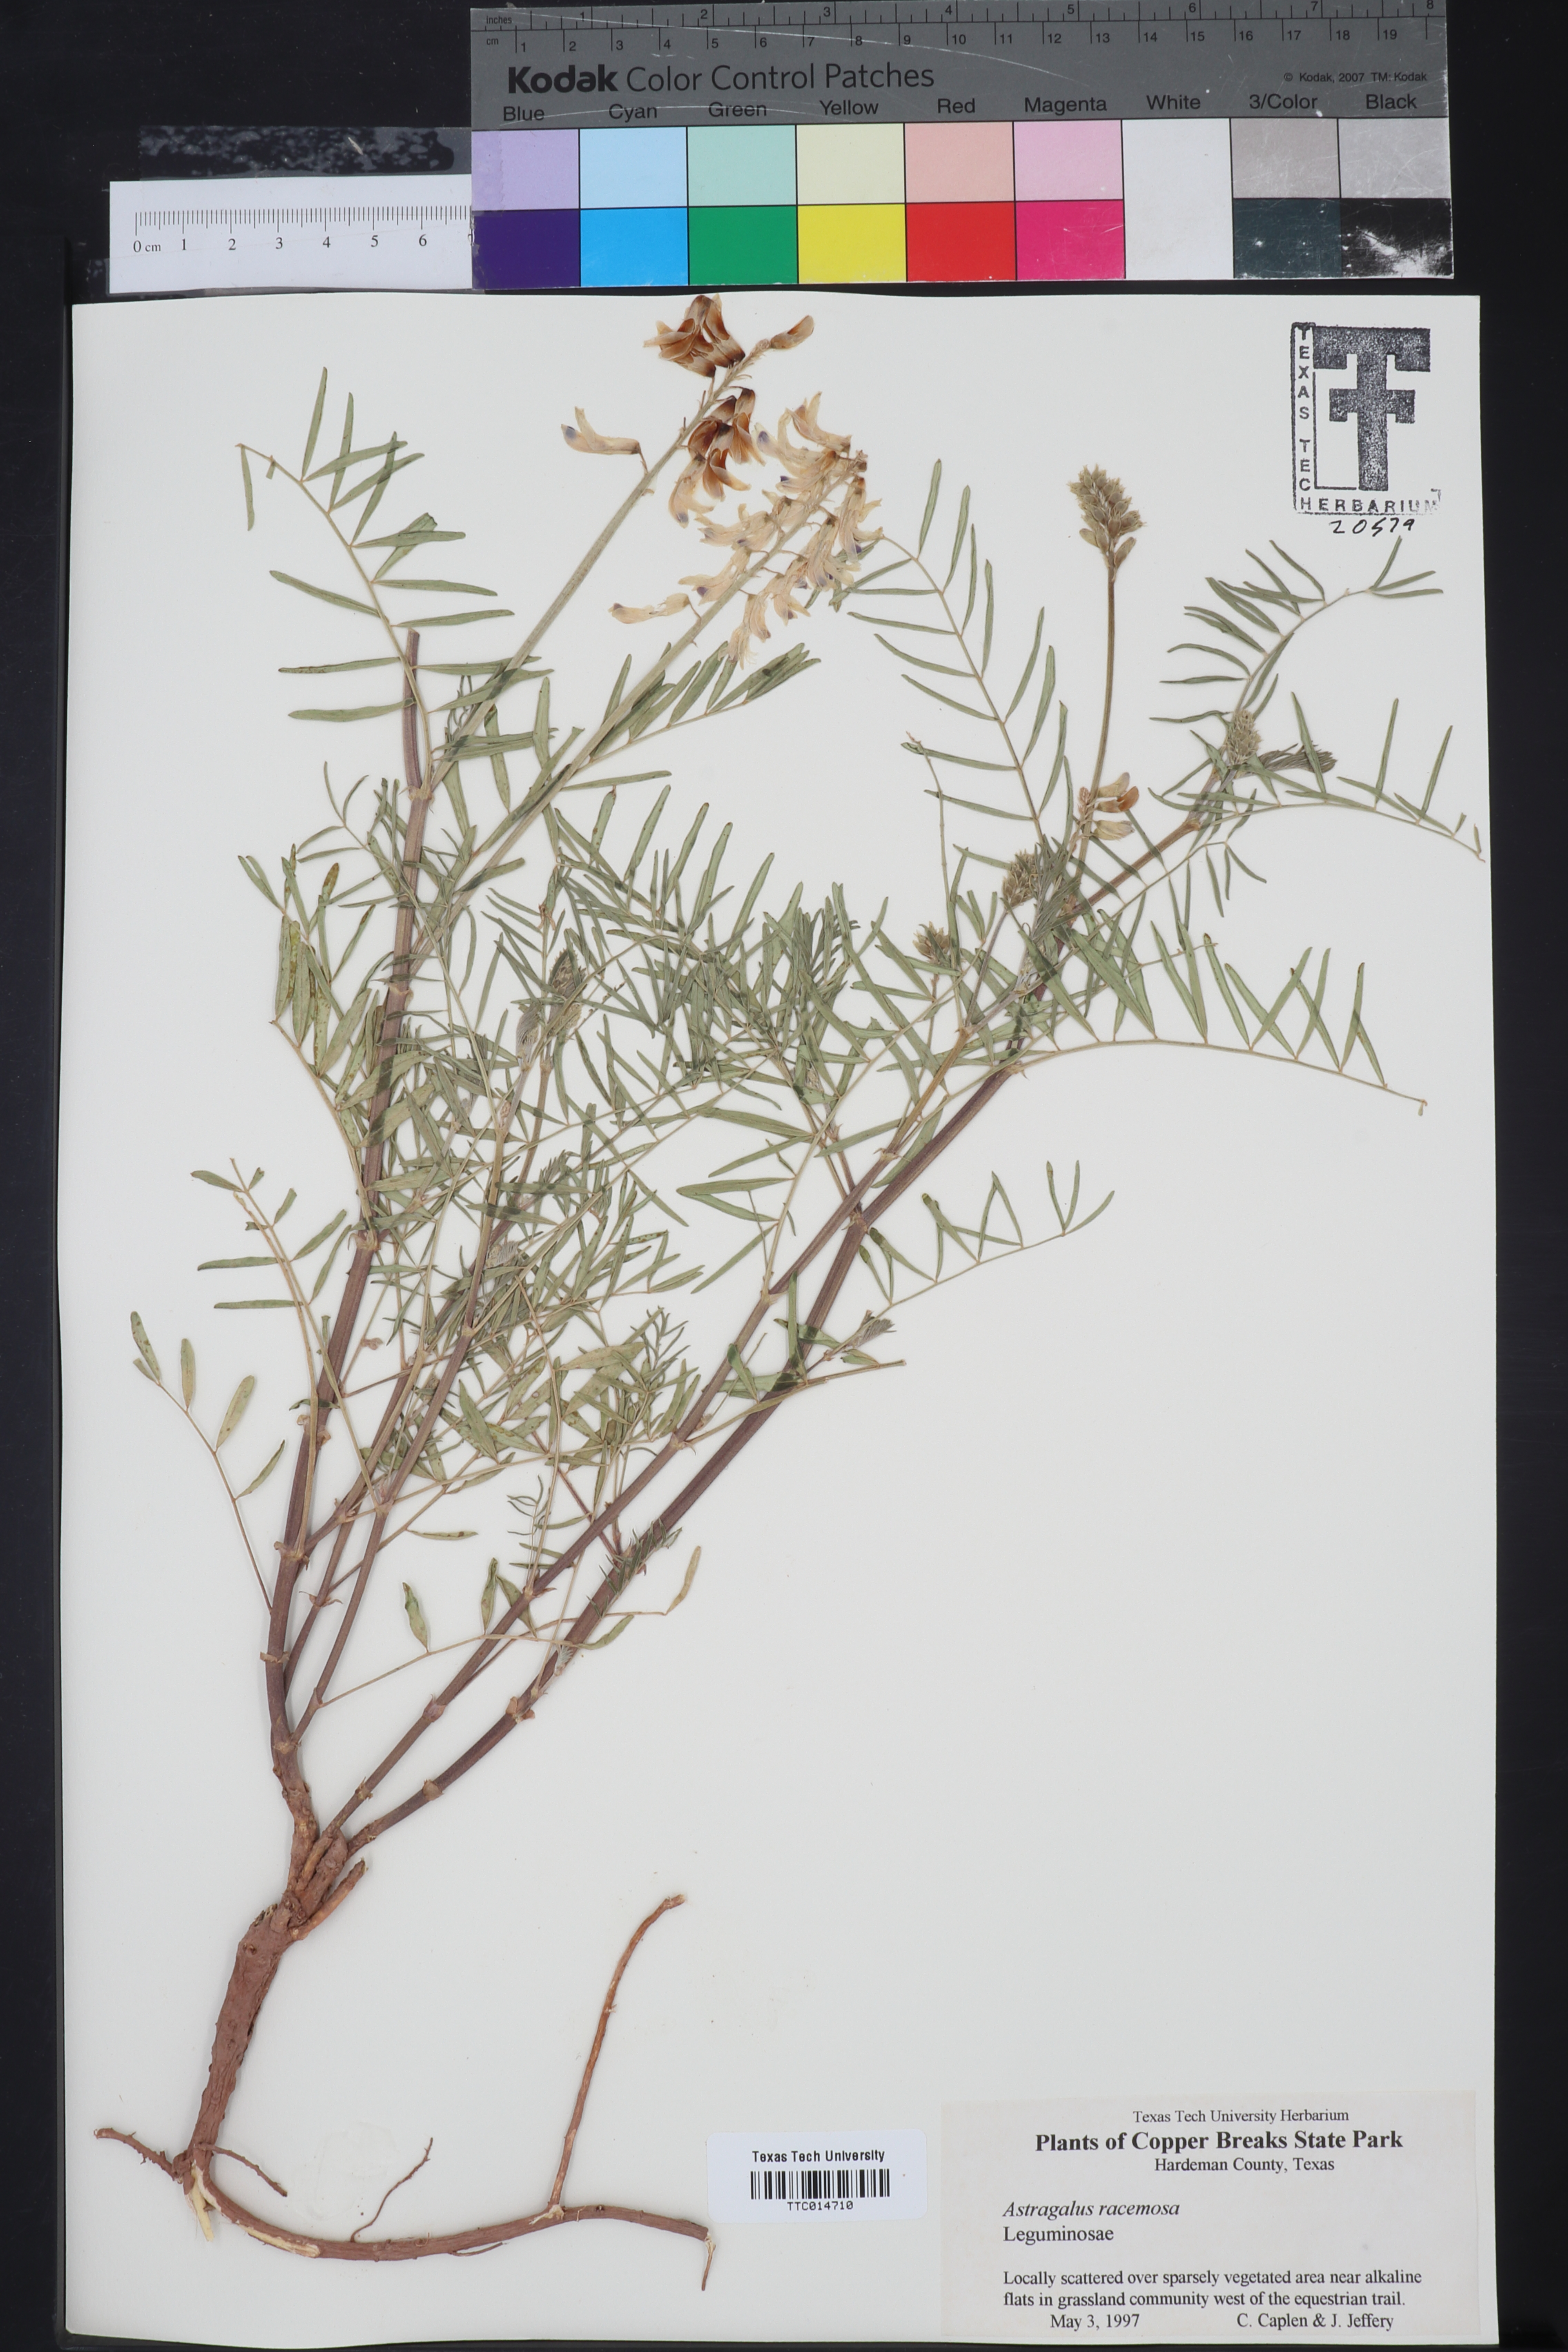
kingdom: Plantae
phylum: Tracheophyta
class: Magnoliopsida
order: Fabales
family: Fabaceae
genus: Astragalus
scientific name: Astragalus nuttallianus
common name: Smallflowered milkvetch
